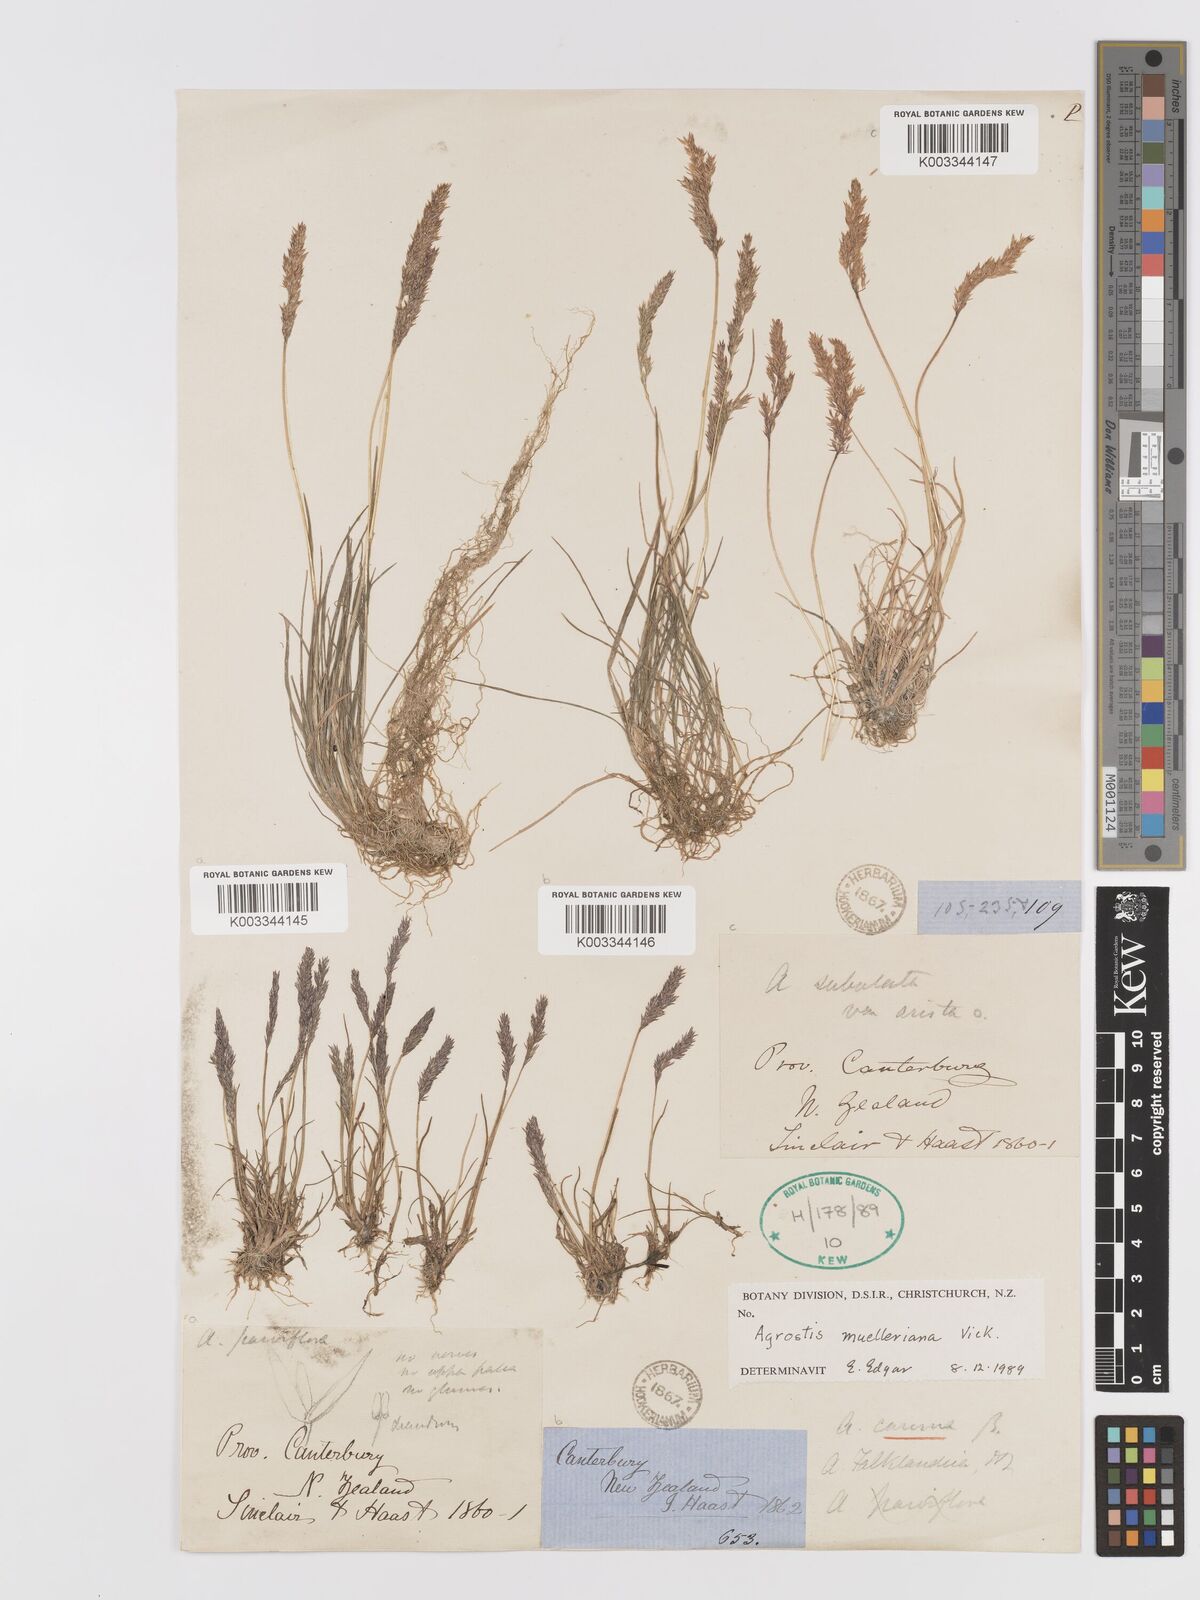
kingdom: Plantae
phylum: Tracheophyta
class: Liliopsida
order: Poales
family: Poaceae
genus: Agrostis
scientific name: Agrostis muelleriana
